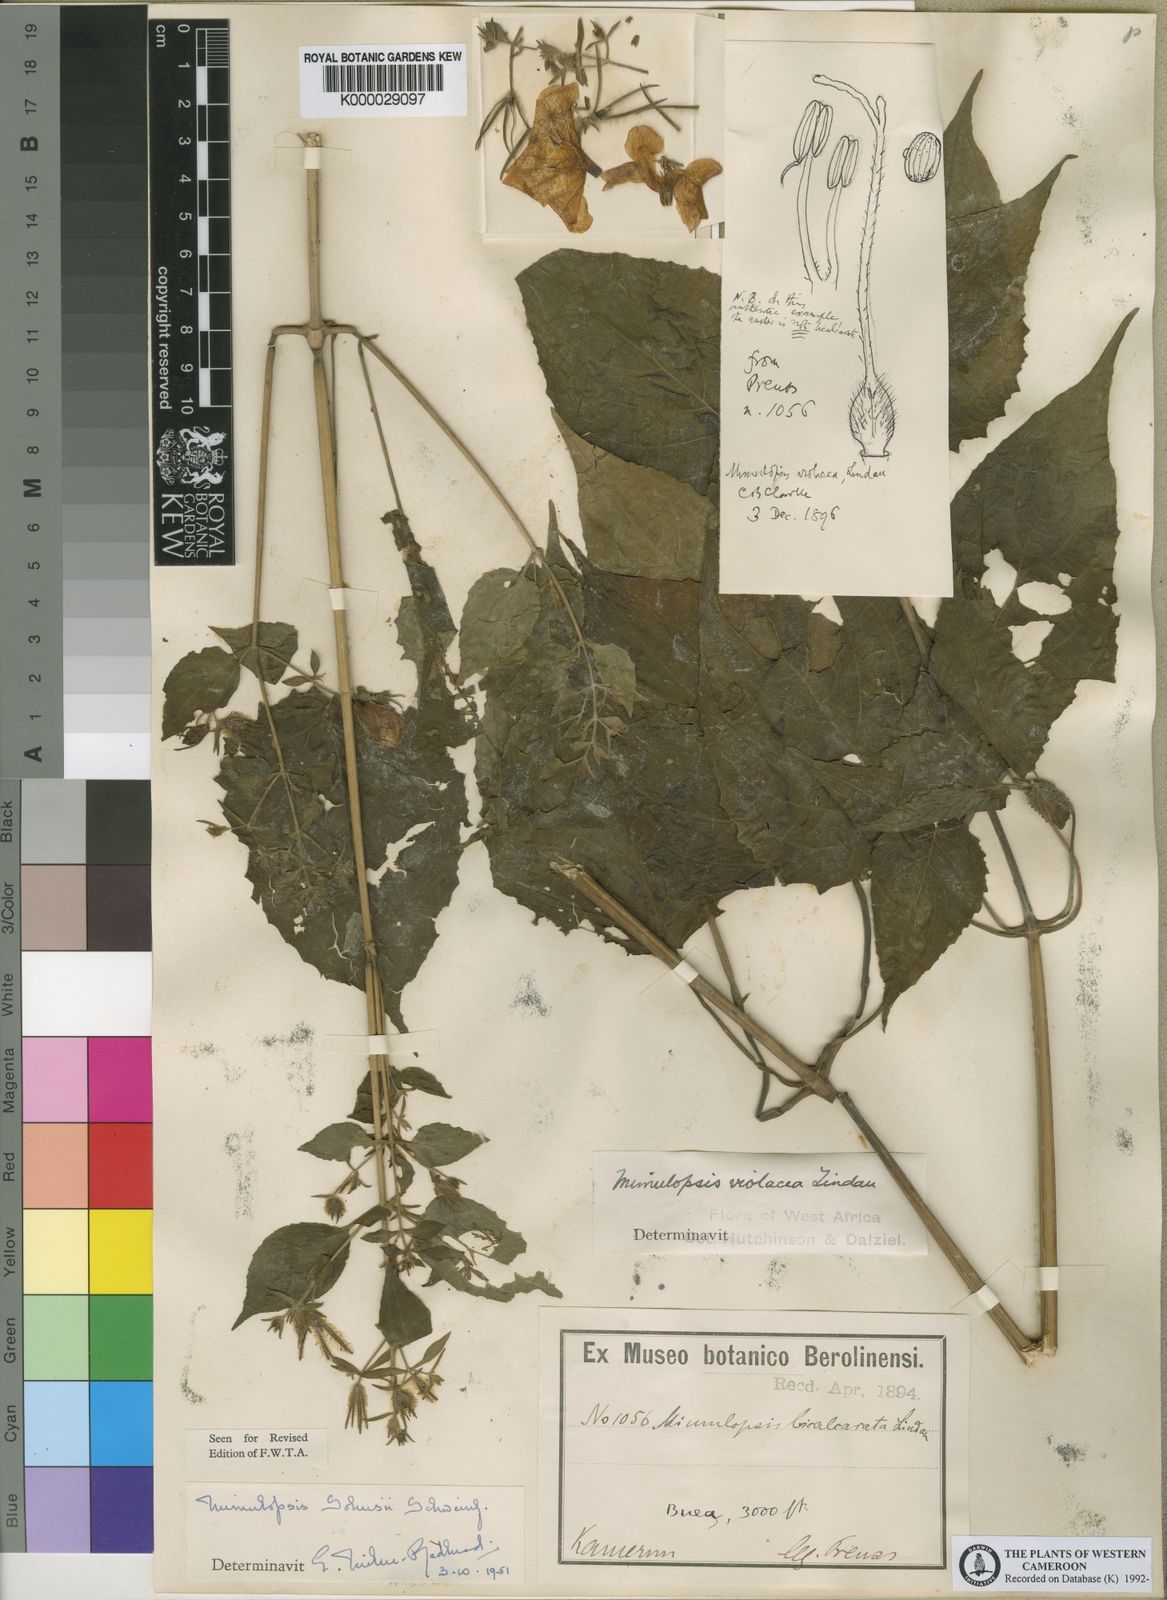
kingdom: Plantae
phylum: Tracheophyta
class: Magnoliopsida
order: Lamiales
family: Acanthaceae
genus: Mimulopsis
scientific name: Mimulopsis solmsii
